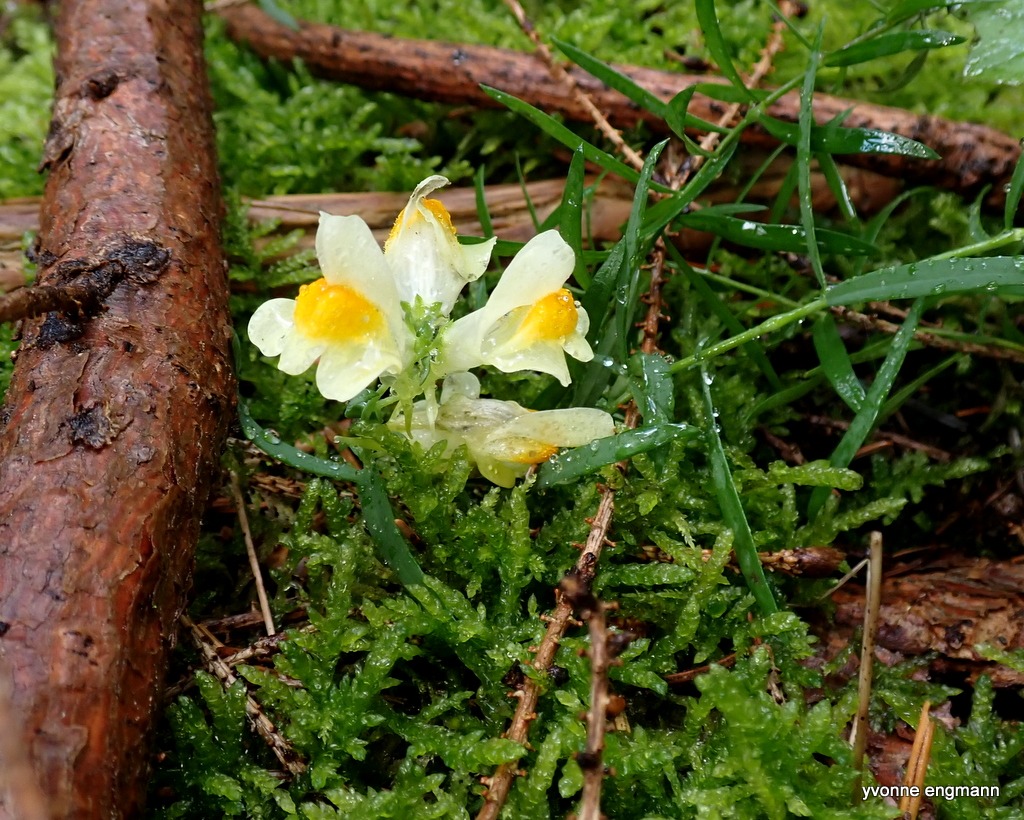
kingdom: Plantae
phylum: Tracheophyta
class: Magnoliopsida
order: Lamiales
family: Plantaginaceae
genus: Linaria
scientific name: Linaria vulgaris
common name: Almindelig torskemund
